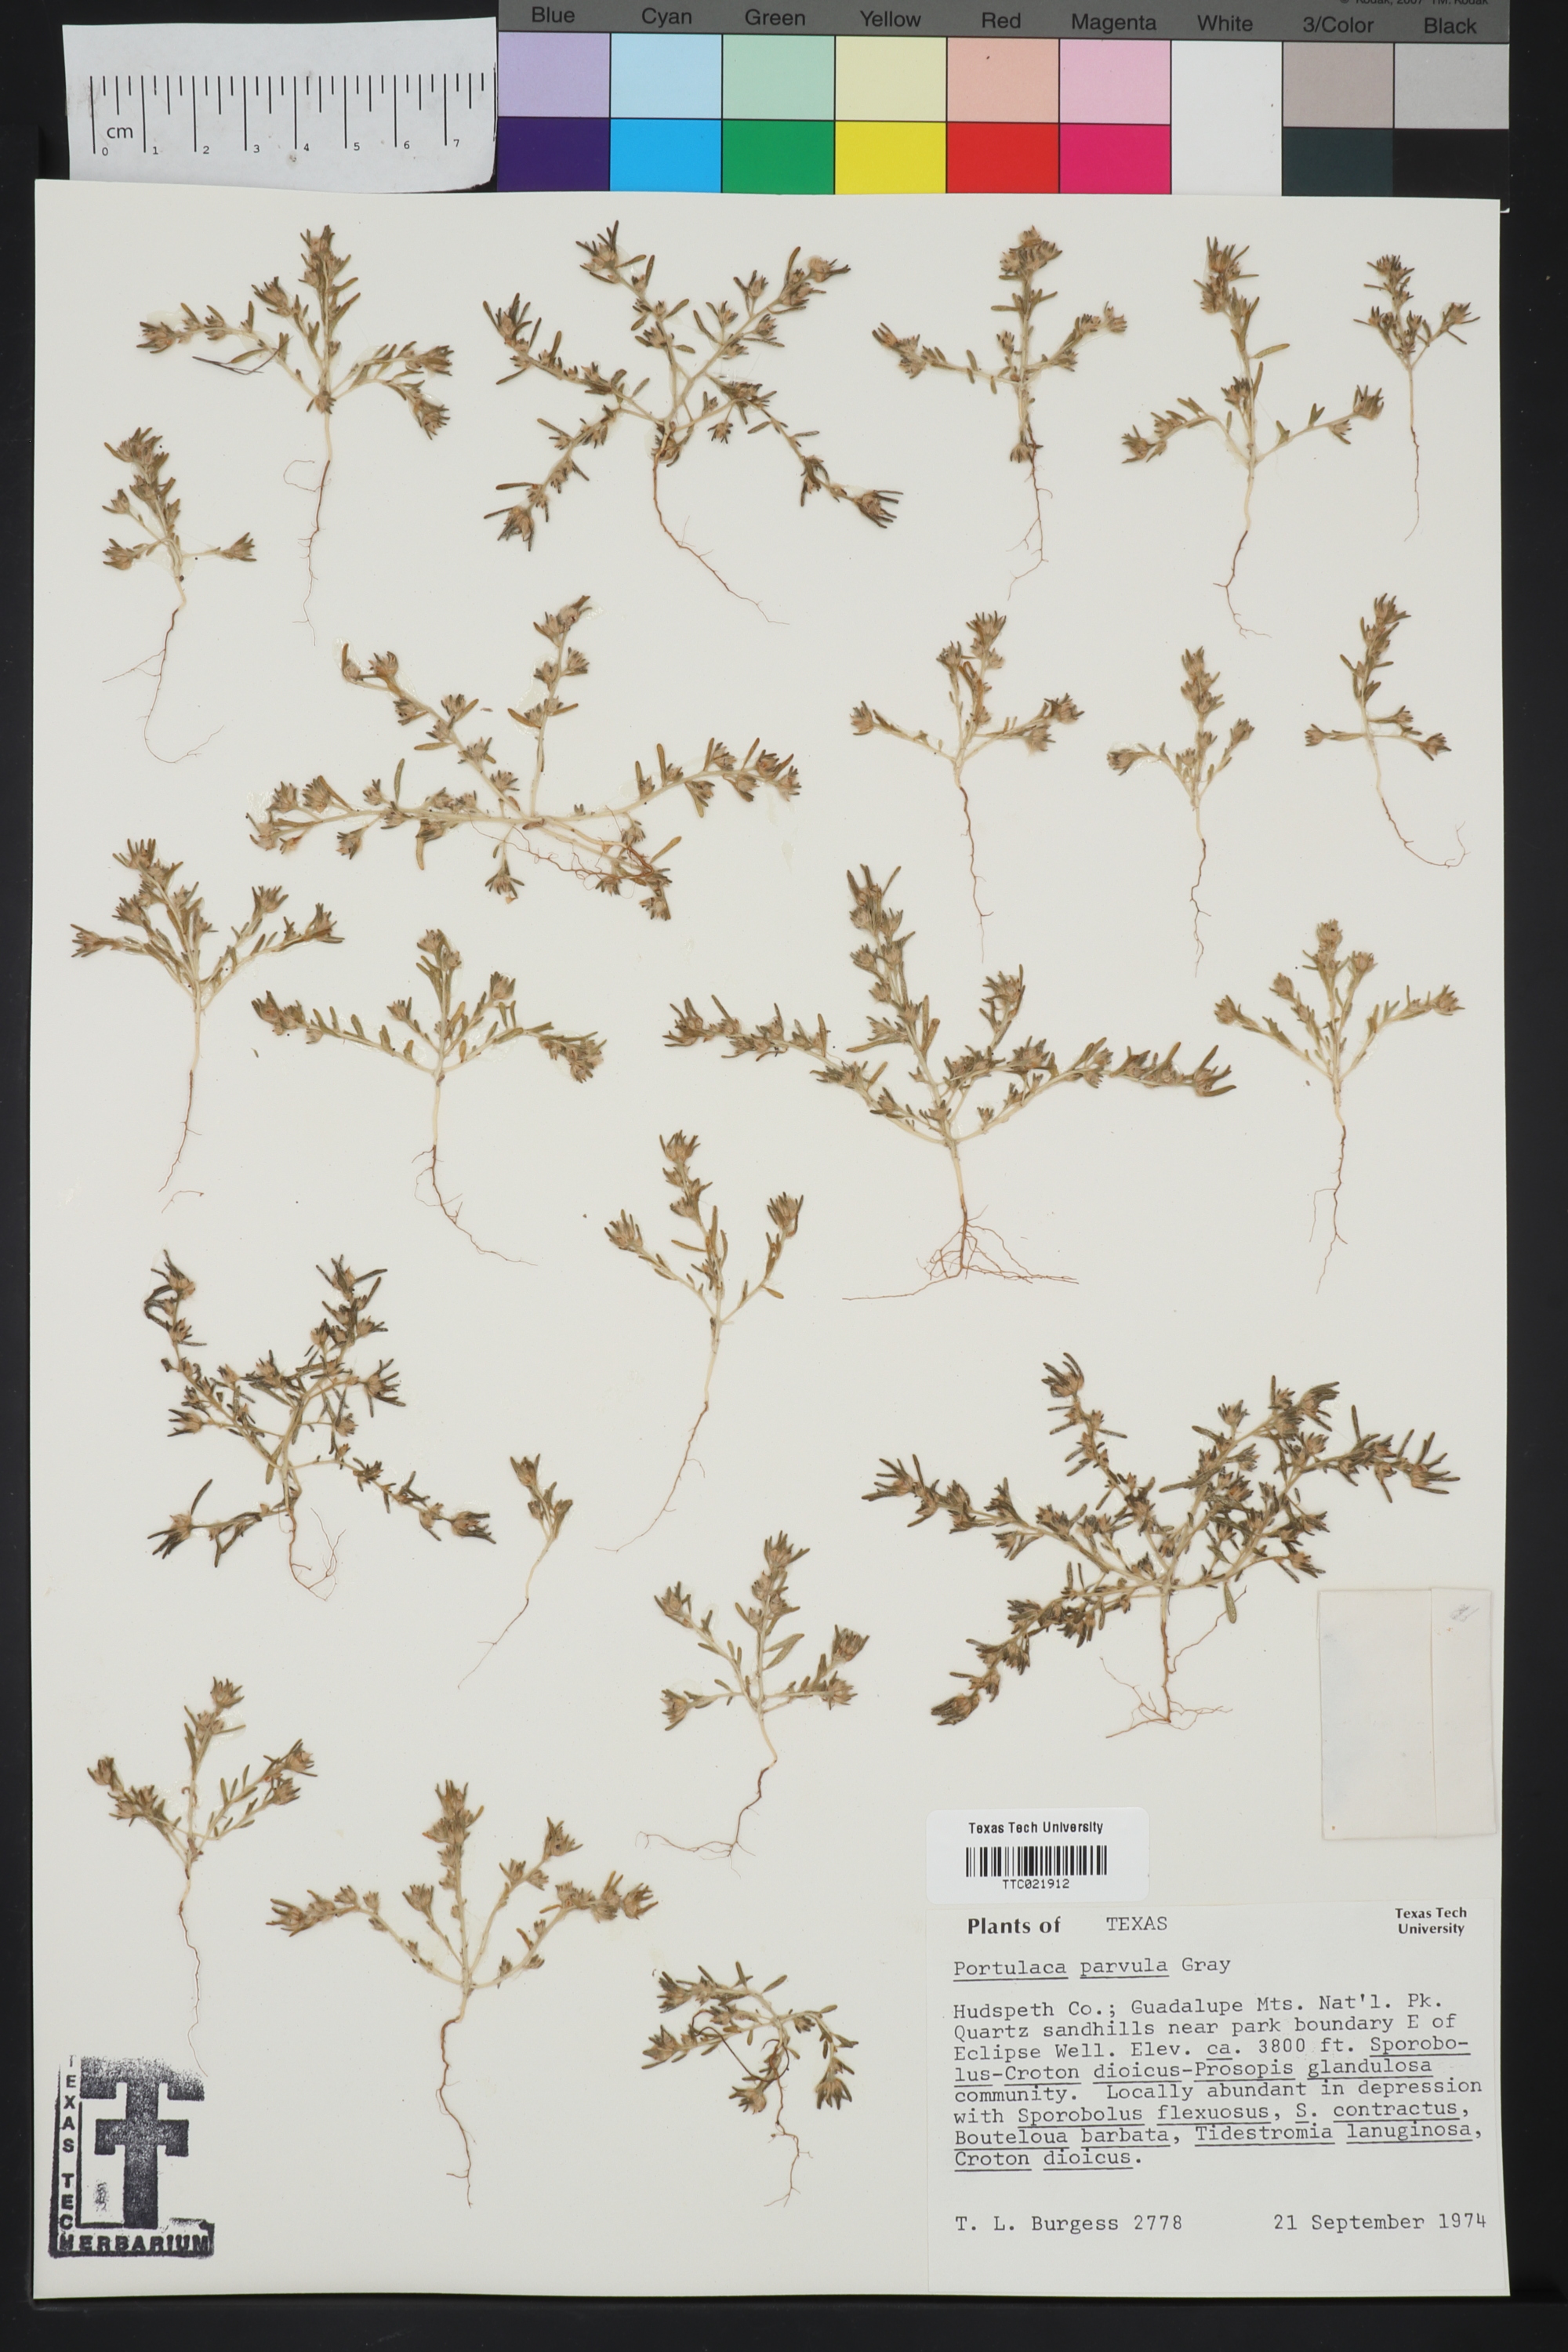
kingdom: Plantae
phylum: Tracheophyta
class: Magnoliopsida
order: Caryophyllales
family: Portulacaceae
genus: Portulaca
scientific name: Portulaca halimoides
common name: Silk cotton purslane
